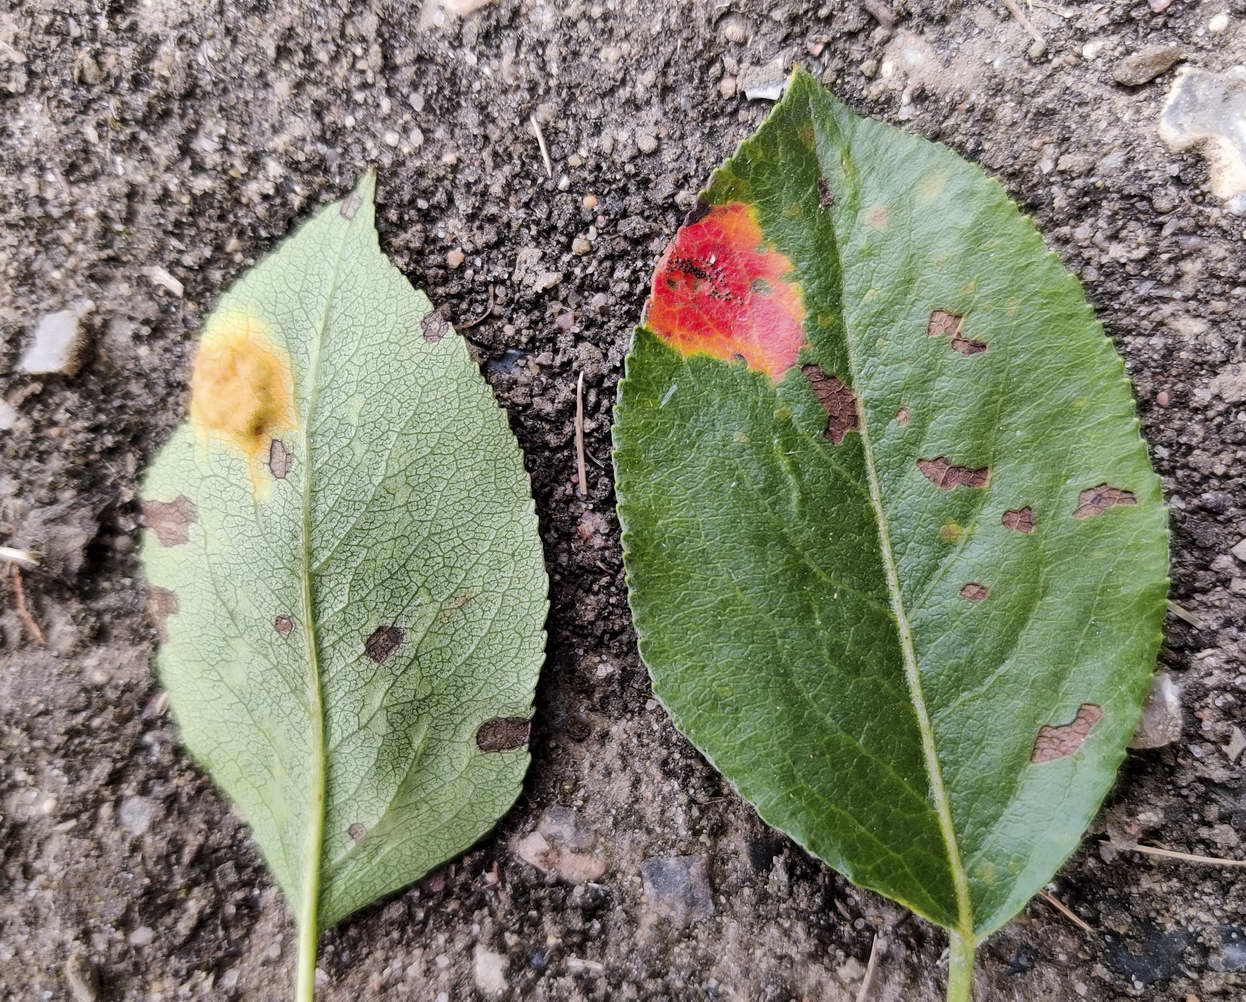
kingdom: Fungi
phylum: Basidiomycota
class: Pucciniomycetes
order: Pucciniales
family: Gymnosporangiaceae
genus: Gymnosporangium
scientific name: Gymnosporangium sabinae
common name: pæregitter-bævrerust
